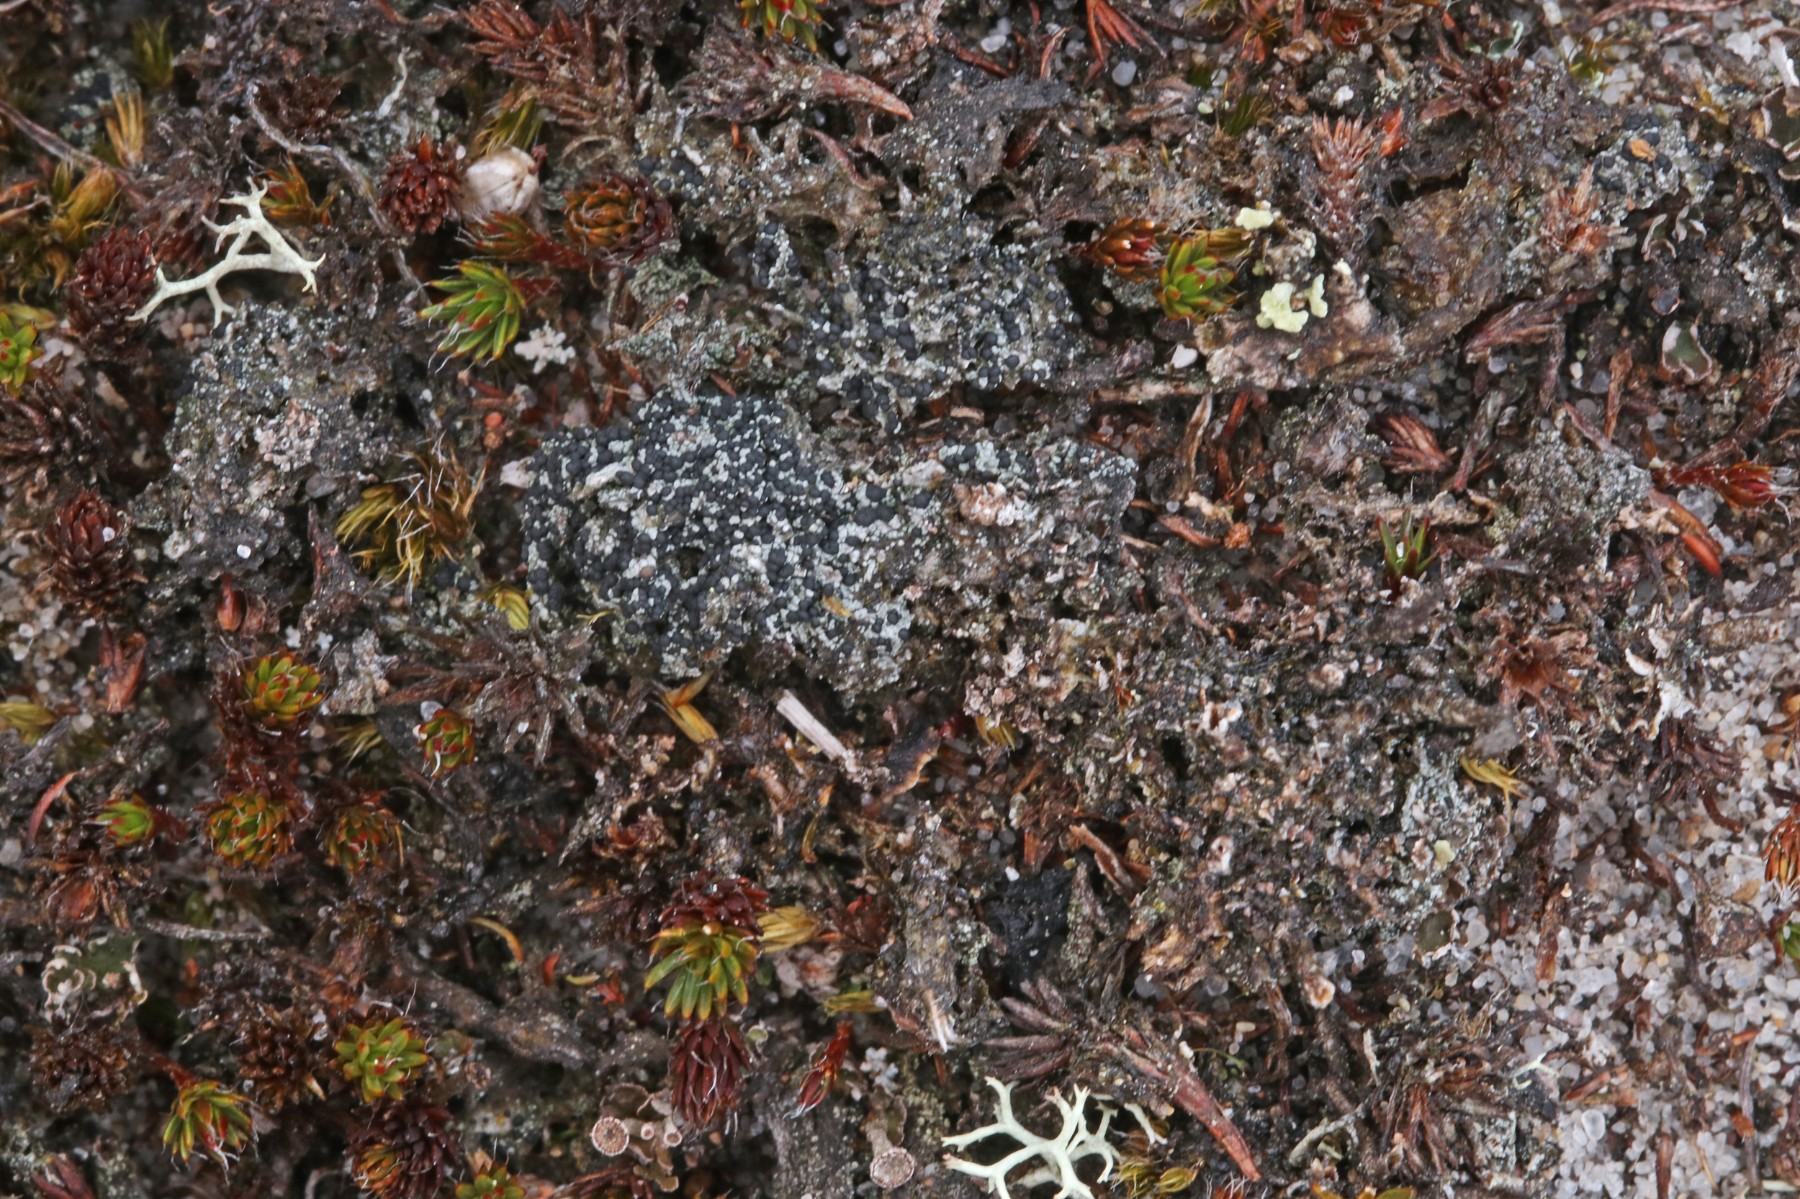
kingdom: Fungi
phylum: Ascomycota
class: Lecanoromycetes
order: Lecanorales
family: Byssolomataceae
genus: Micarea
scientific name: Micarea lignaria
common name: tørve-knaplav
